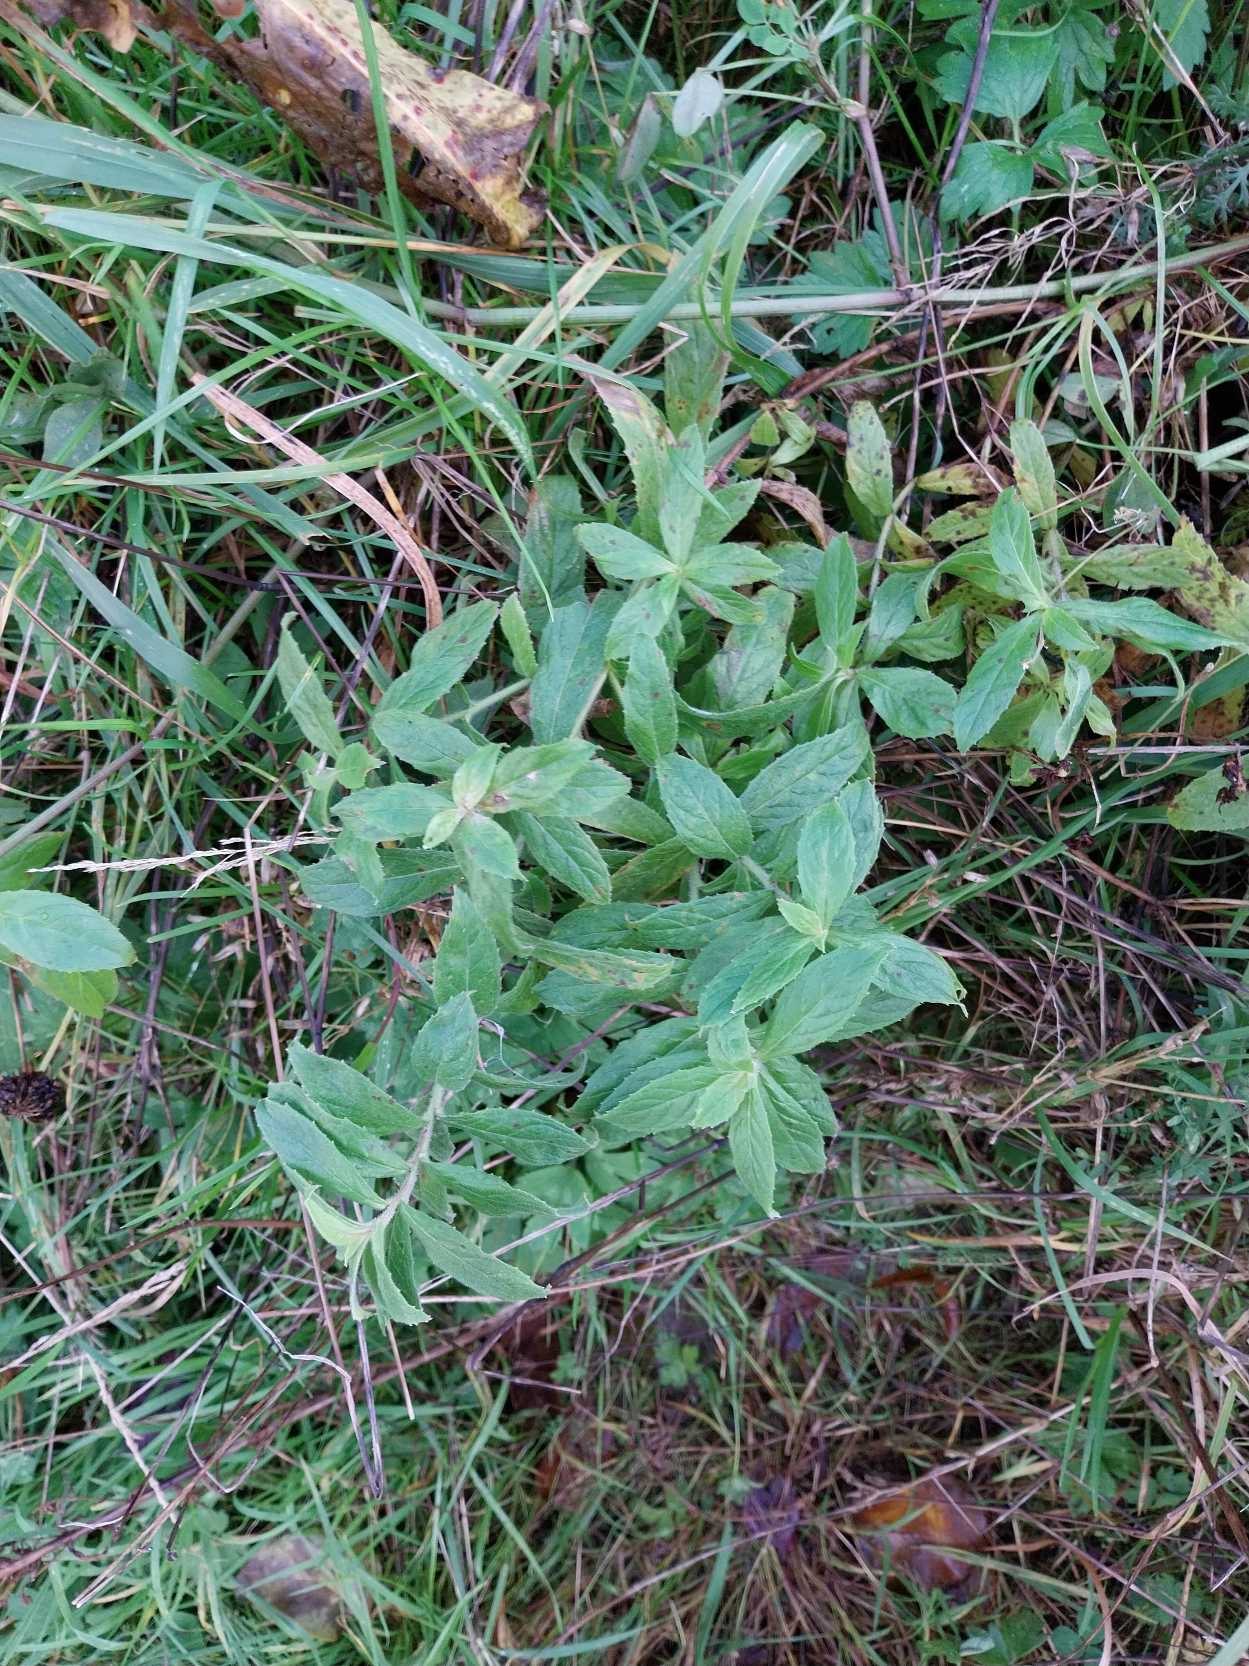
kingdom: Plantae
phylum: Tracheophyta
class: Magnoliopsida
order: Myrtales
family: Onagraceae
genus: Epilobium
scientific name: Epilobium hirsutum
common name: Lådden dueurt
